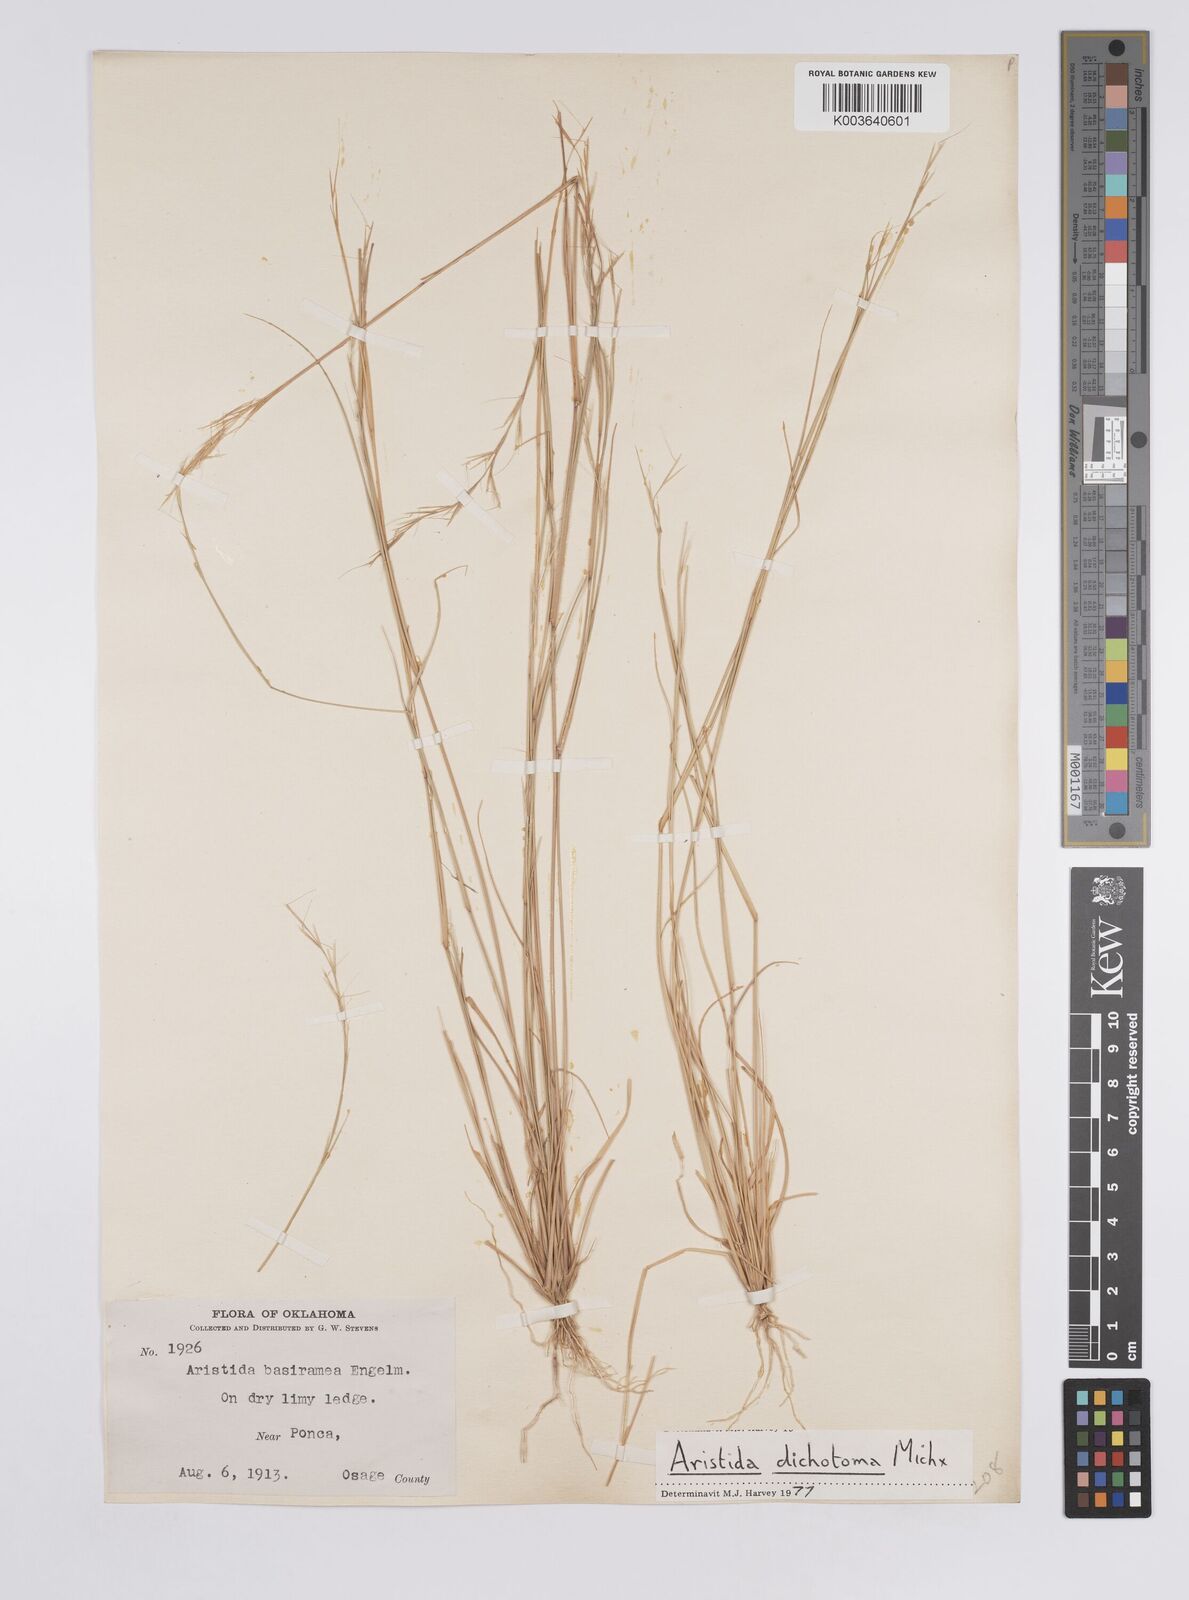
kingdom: Plantae
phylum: Tracheophyta
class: Liliopsida
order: Poales
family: Poaceae
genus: Aristida
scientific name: Aristida dichotoma
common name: Churchmouse three-awn
